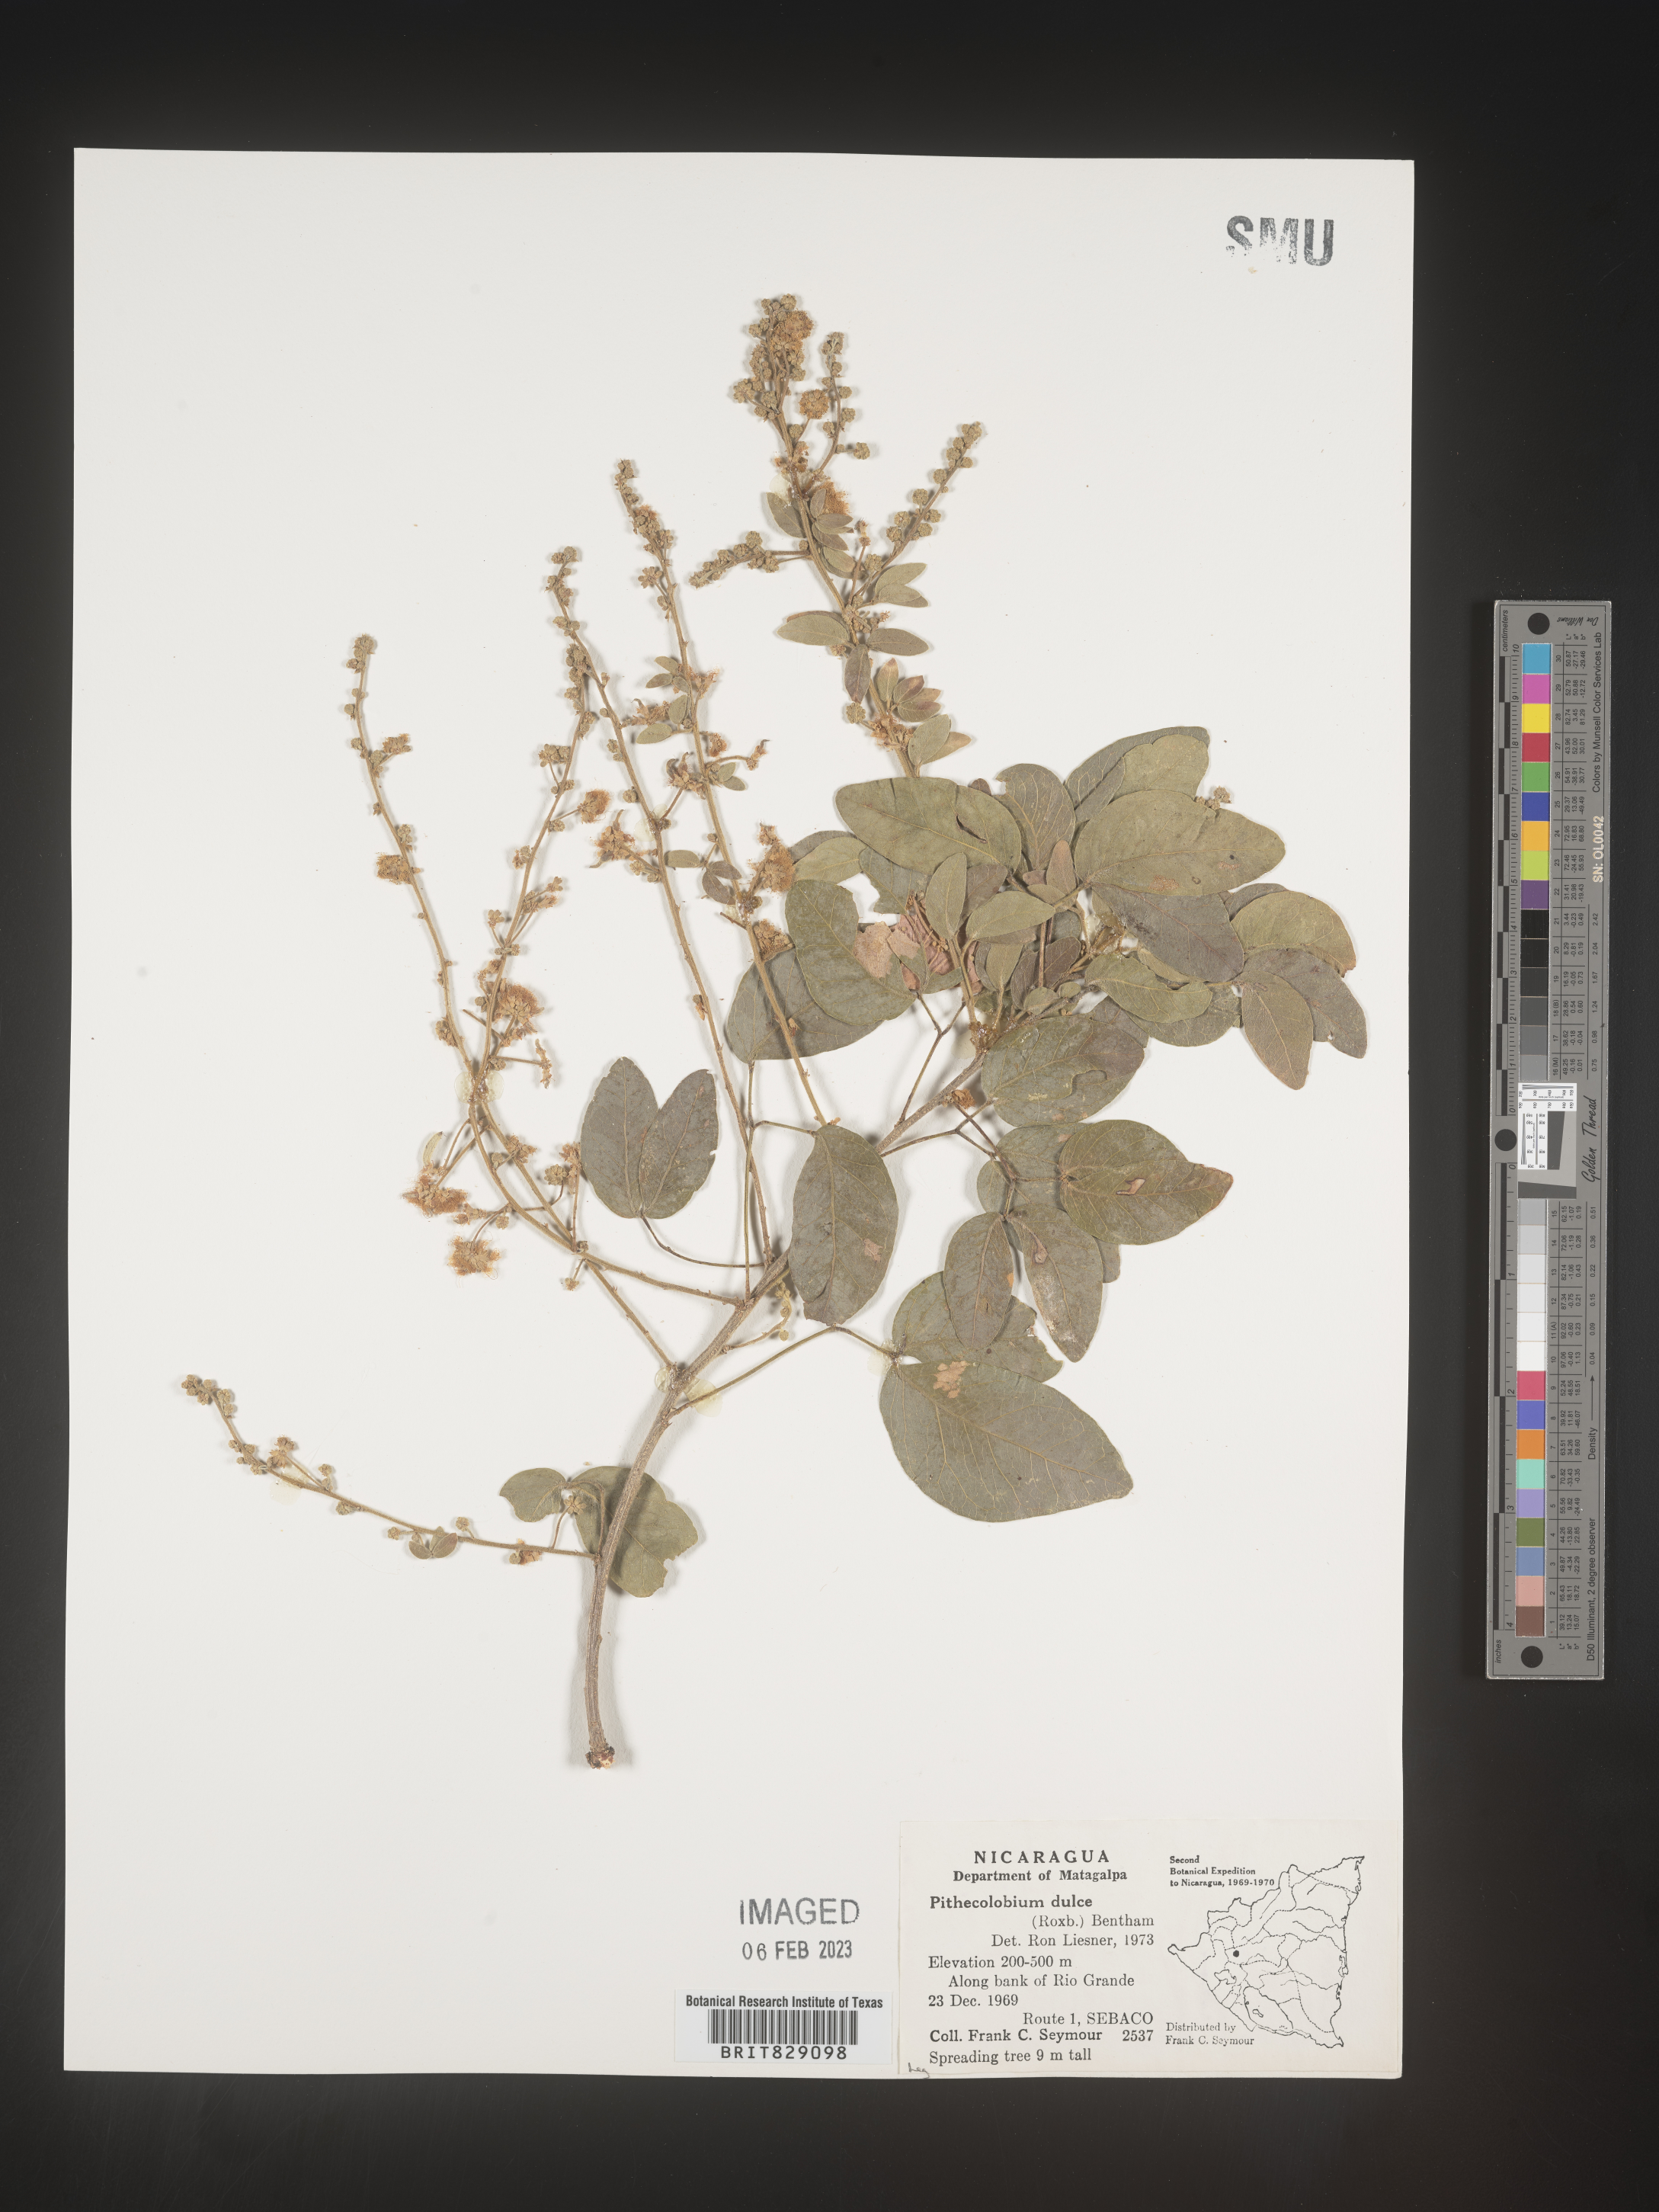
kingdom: Plantae
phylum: Tracheophyta
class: Magnoliopsida
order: Fabales
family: Fabaceae
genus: Pithecellobium
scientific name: Pithecellobium
